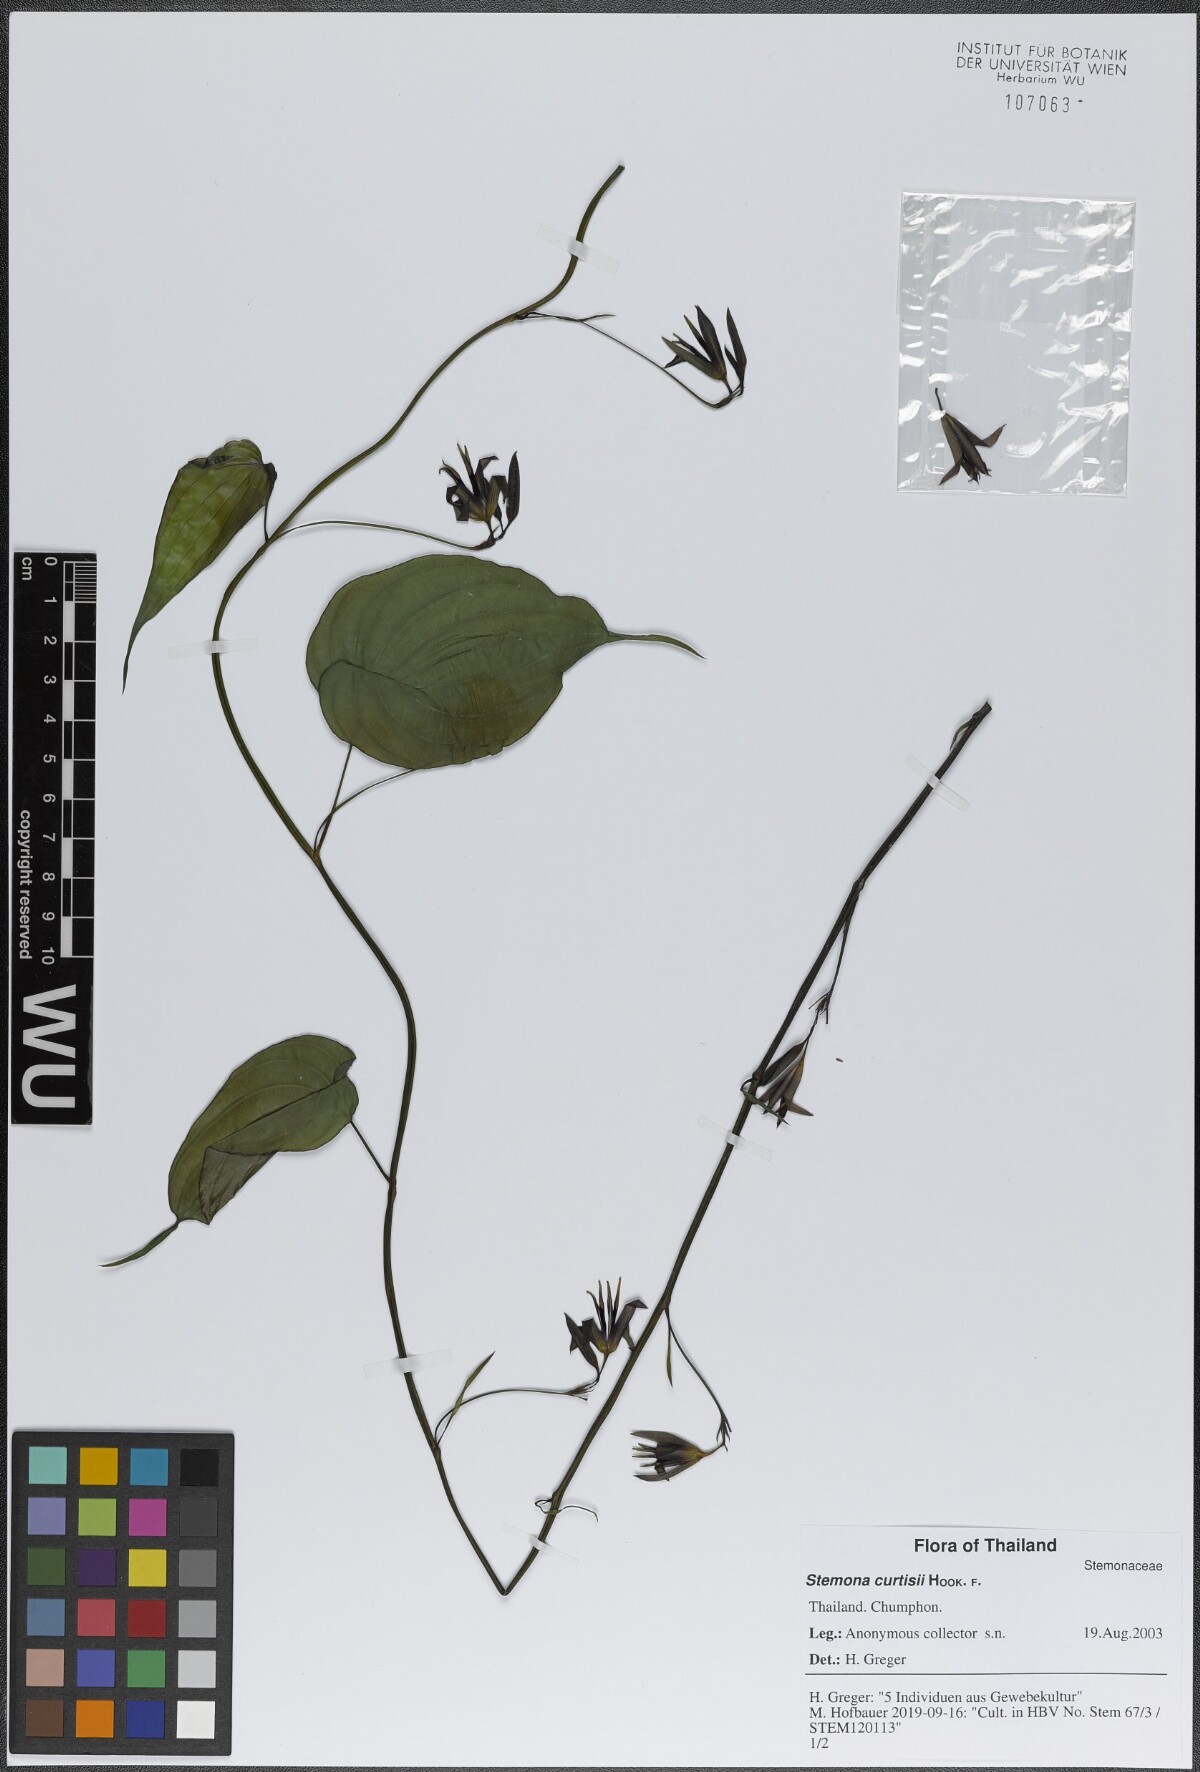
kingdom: Plantae
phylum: Tracheophyta
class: Liliopsida
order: Pandanales
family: Stemonaceae
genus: Stemona
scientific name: Stemona curtisii
